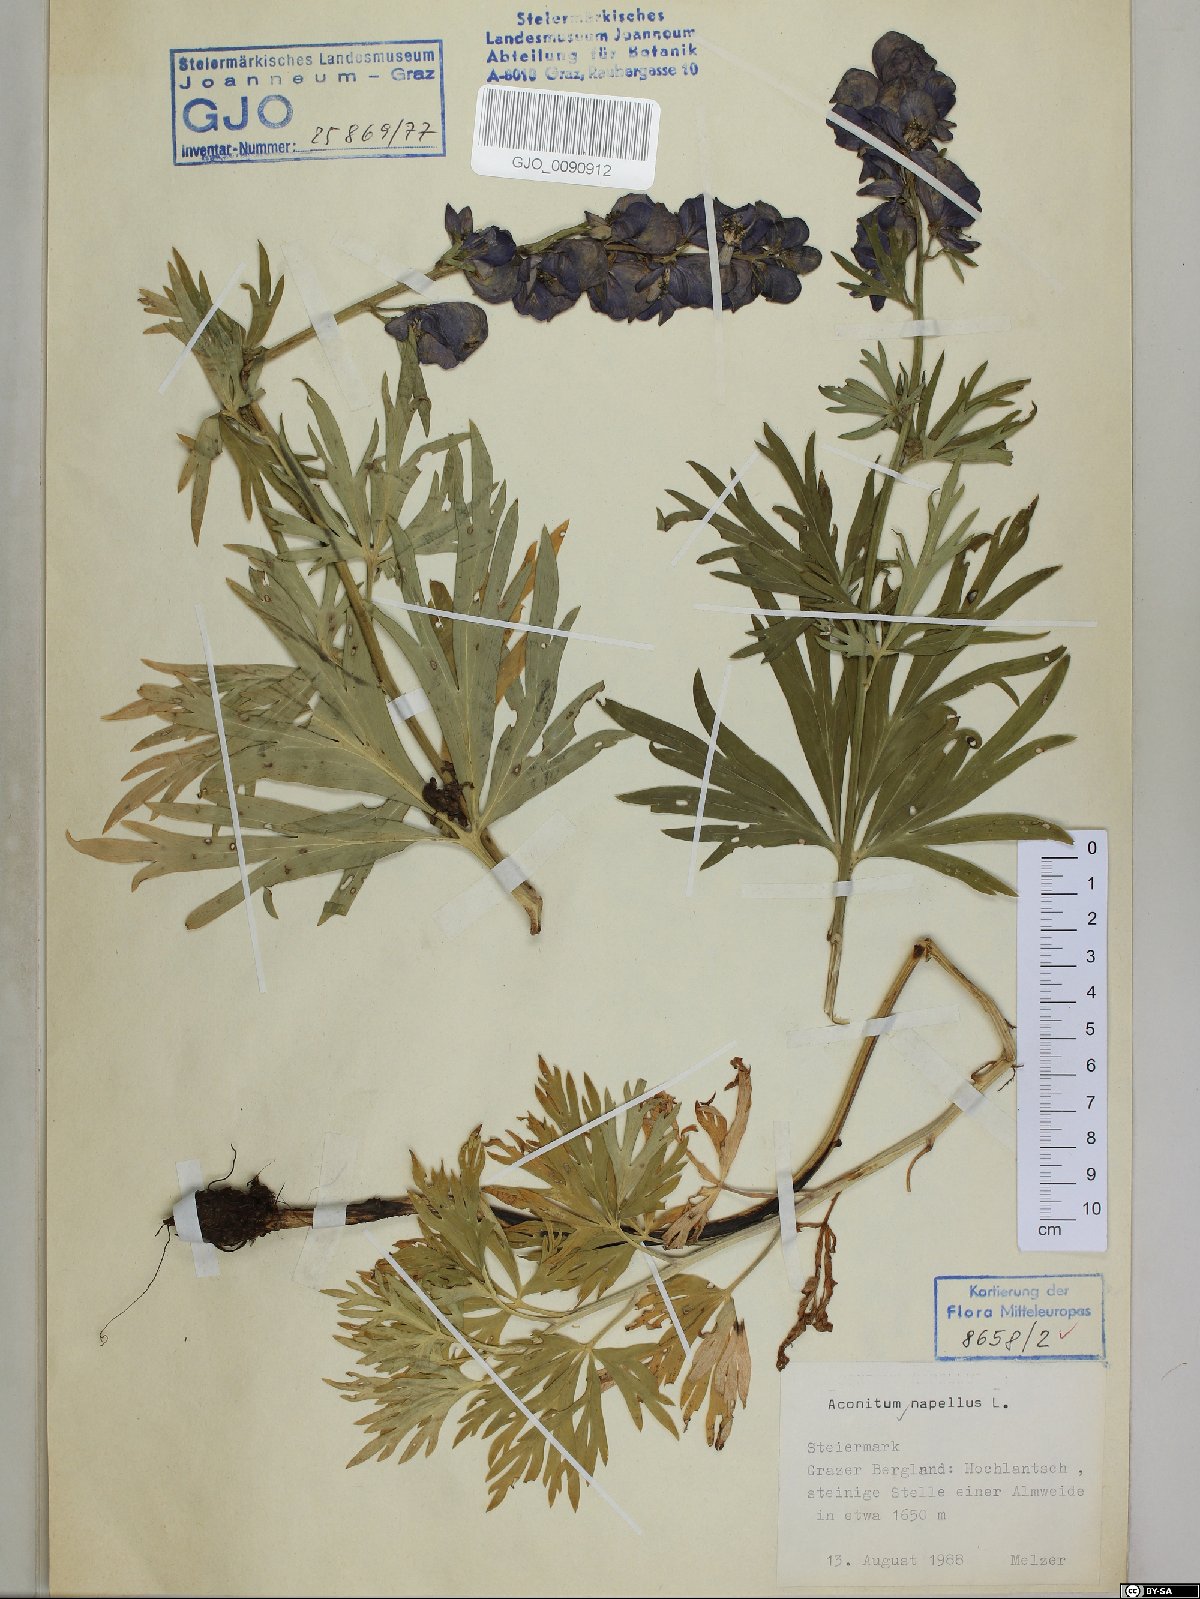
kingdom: Plantae
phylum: Tracheophyta
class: Magnoliopsida
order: Ranunculales
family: Ranunculaceae
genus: Aconitum
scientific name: Aconitum napellus
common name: Garden monkshood
